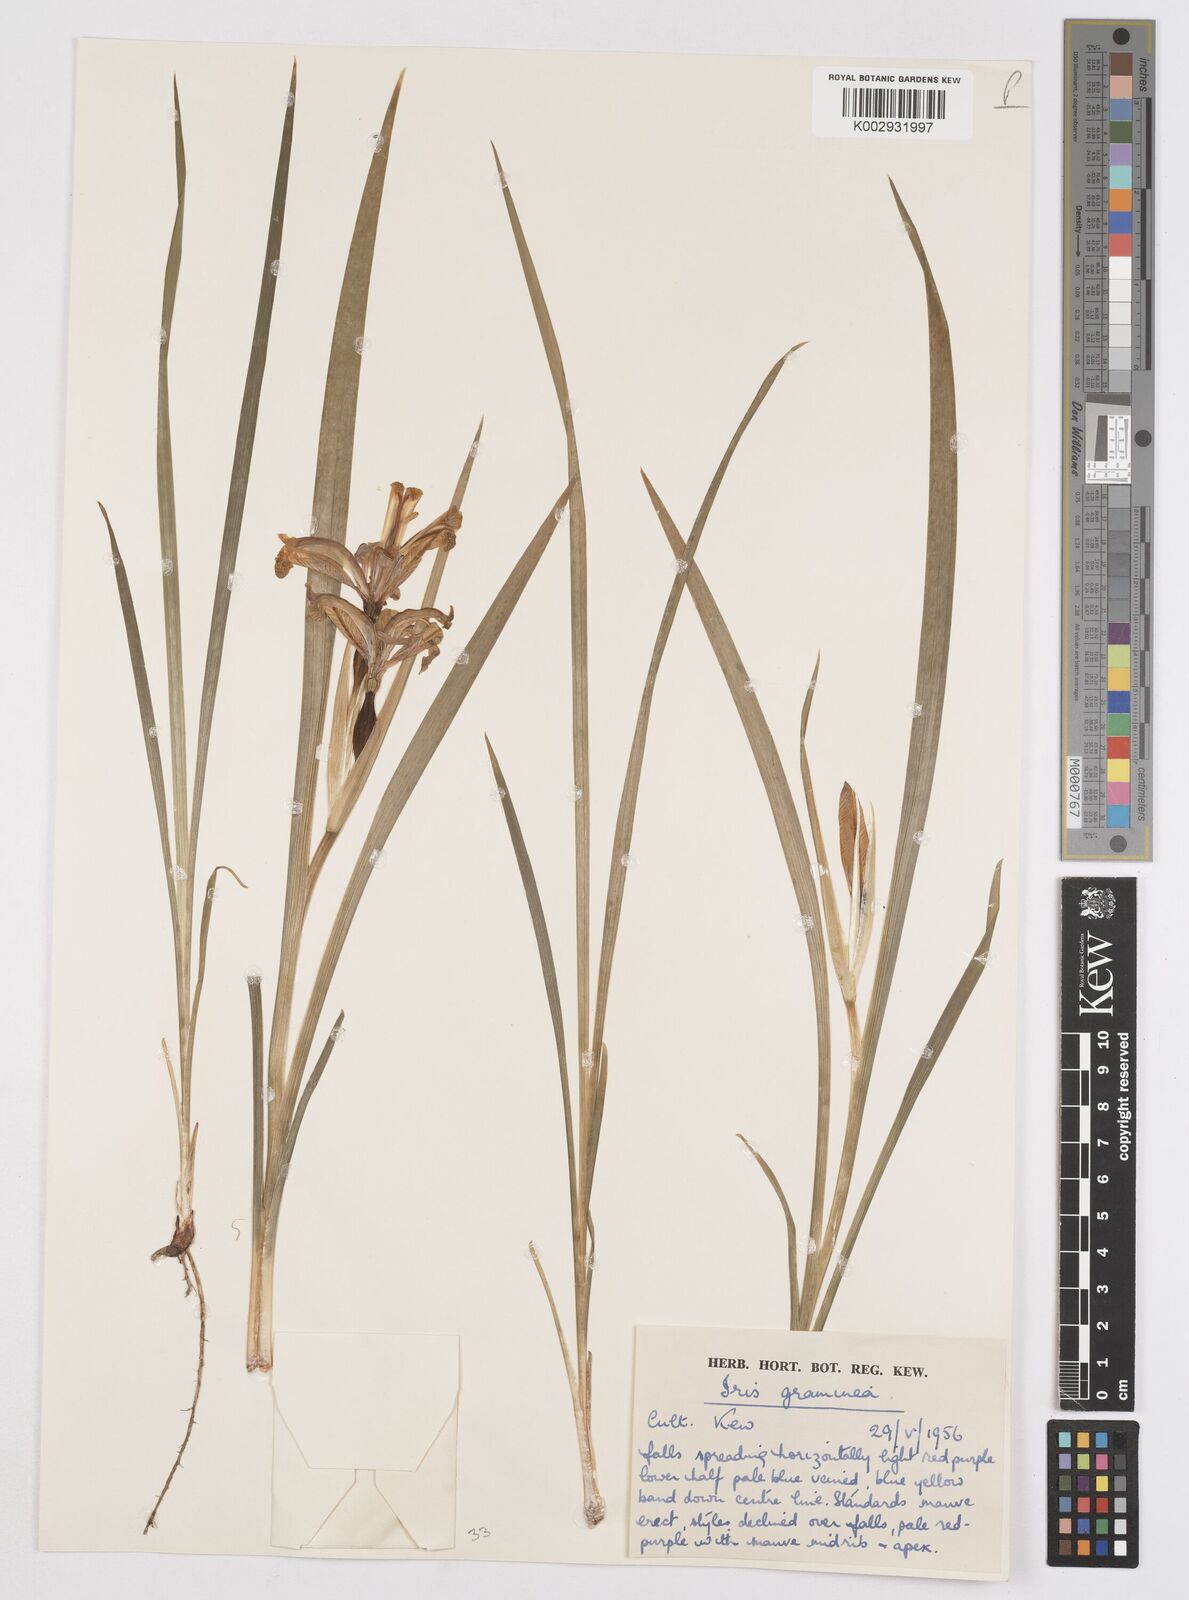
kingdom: Plantae
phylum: Tracheophyta
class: Liliopsida
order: Asparagales
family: Iridaceae
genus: Iris
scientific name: Iris graminea
